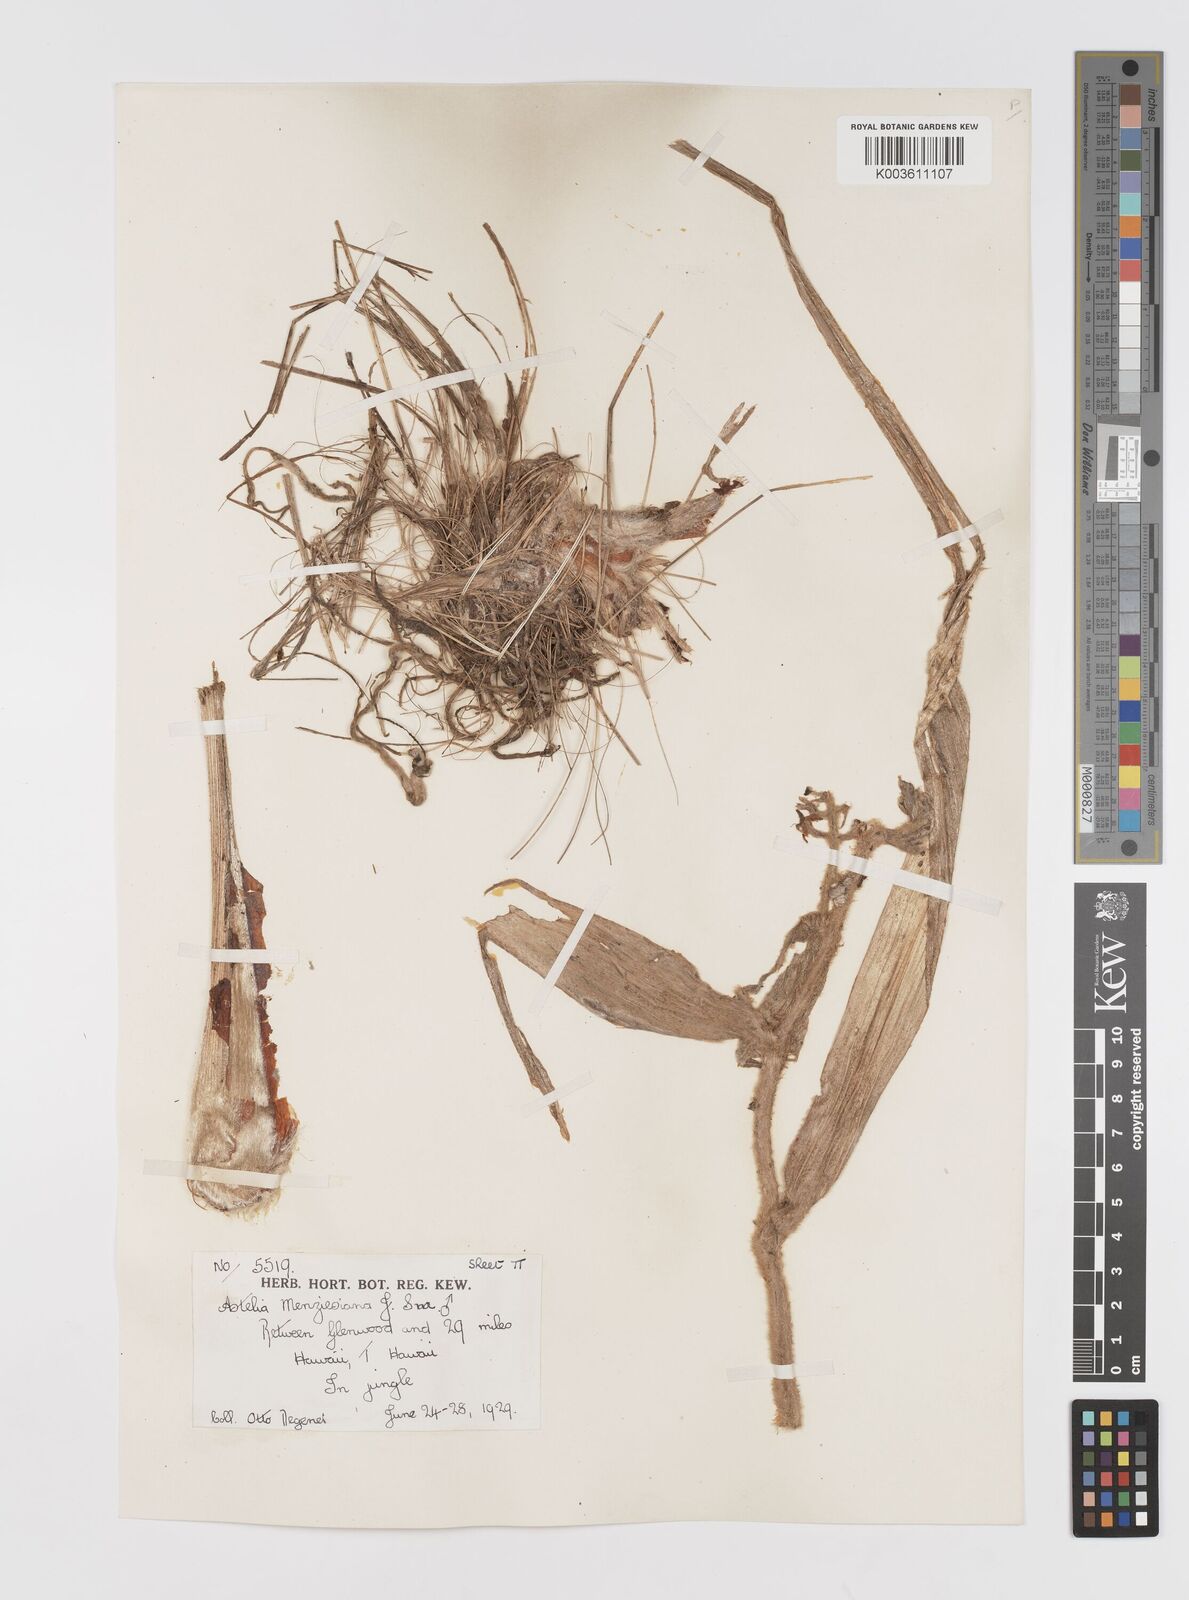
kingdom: Plantae
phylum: Tracheophyta
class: Liliopsida
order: Asparagales
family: Asteliaceae
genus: Astelia
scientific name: Astelia menziesiana
